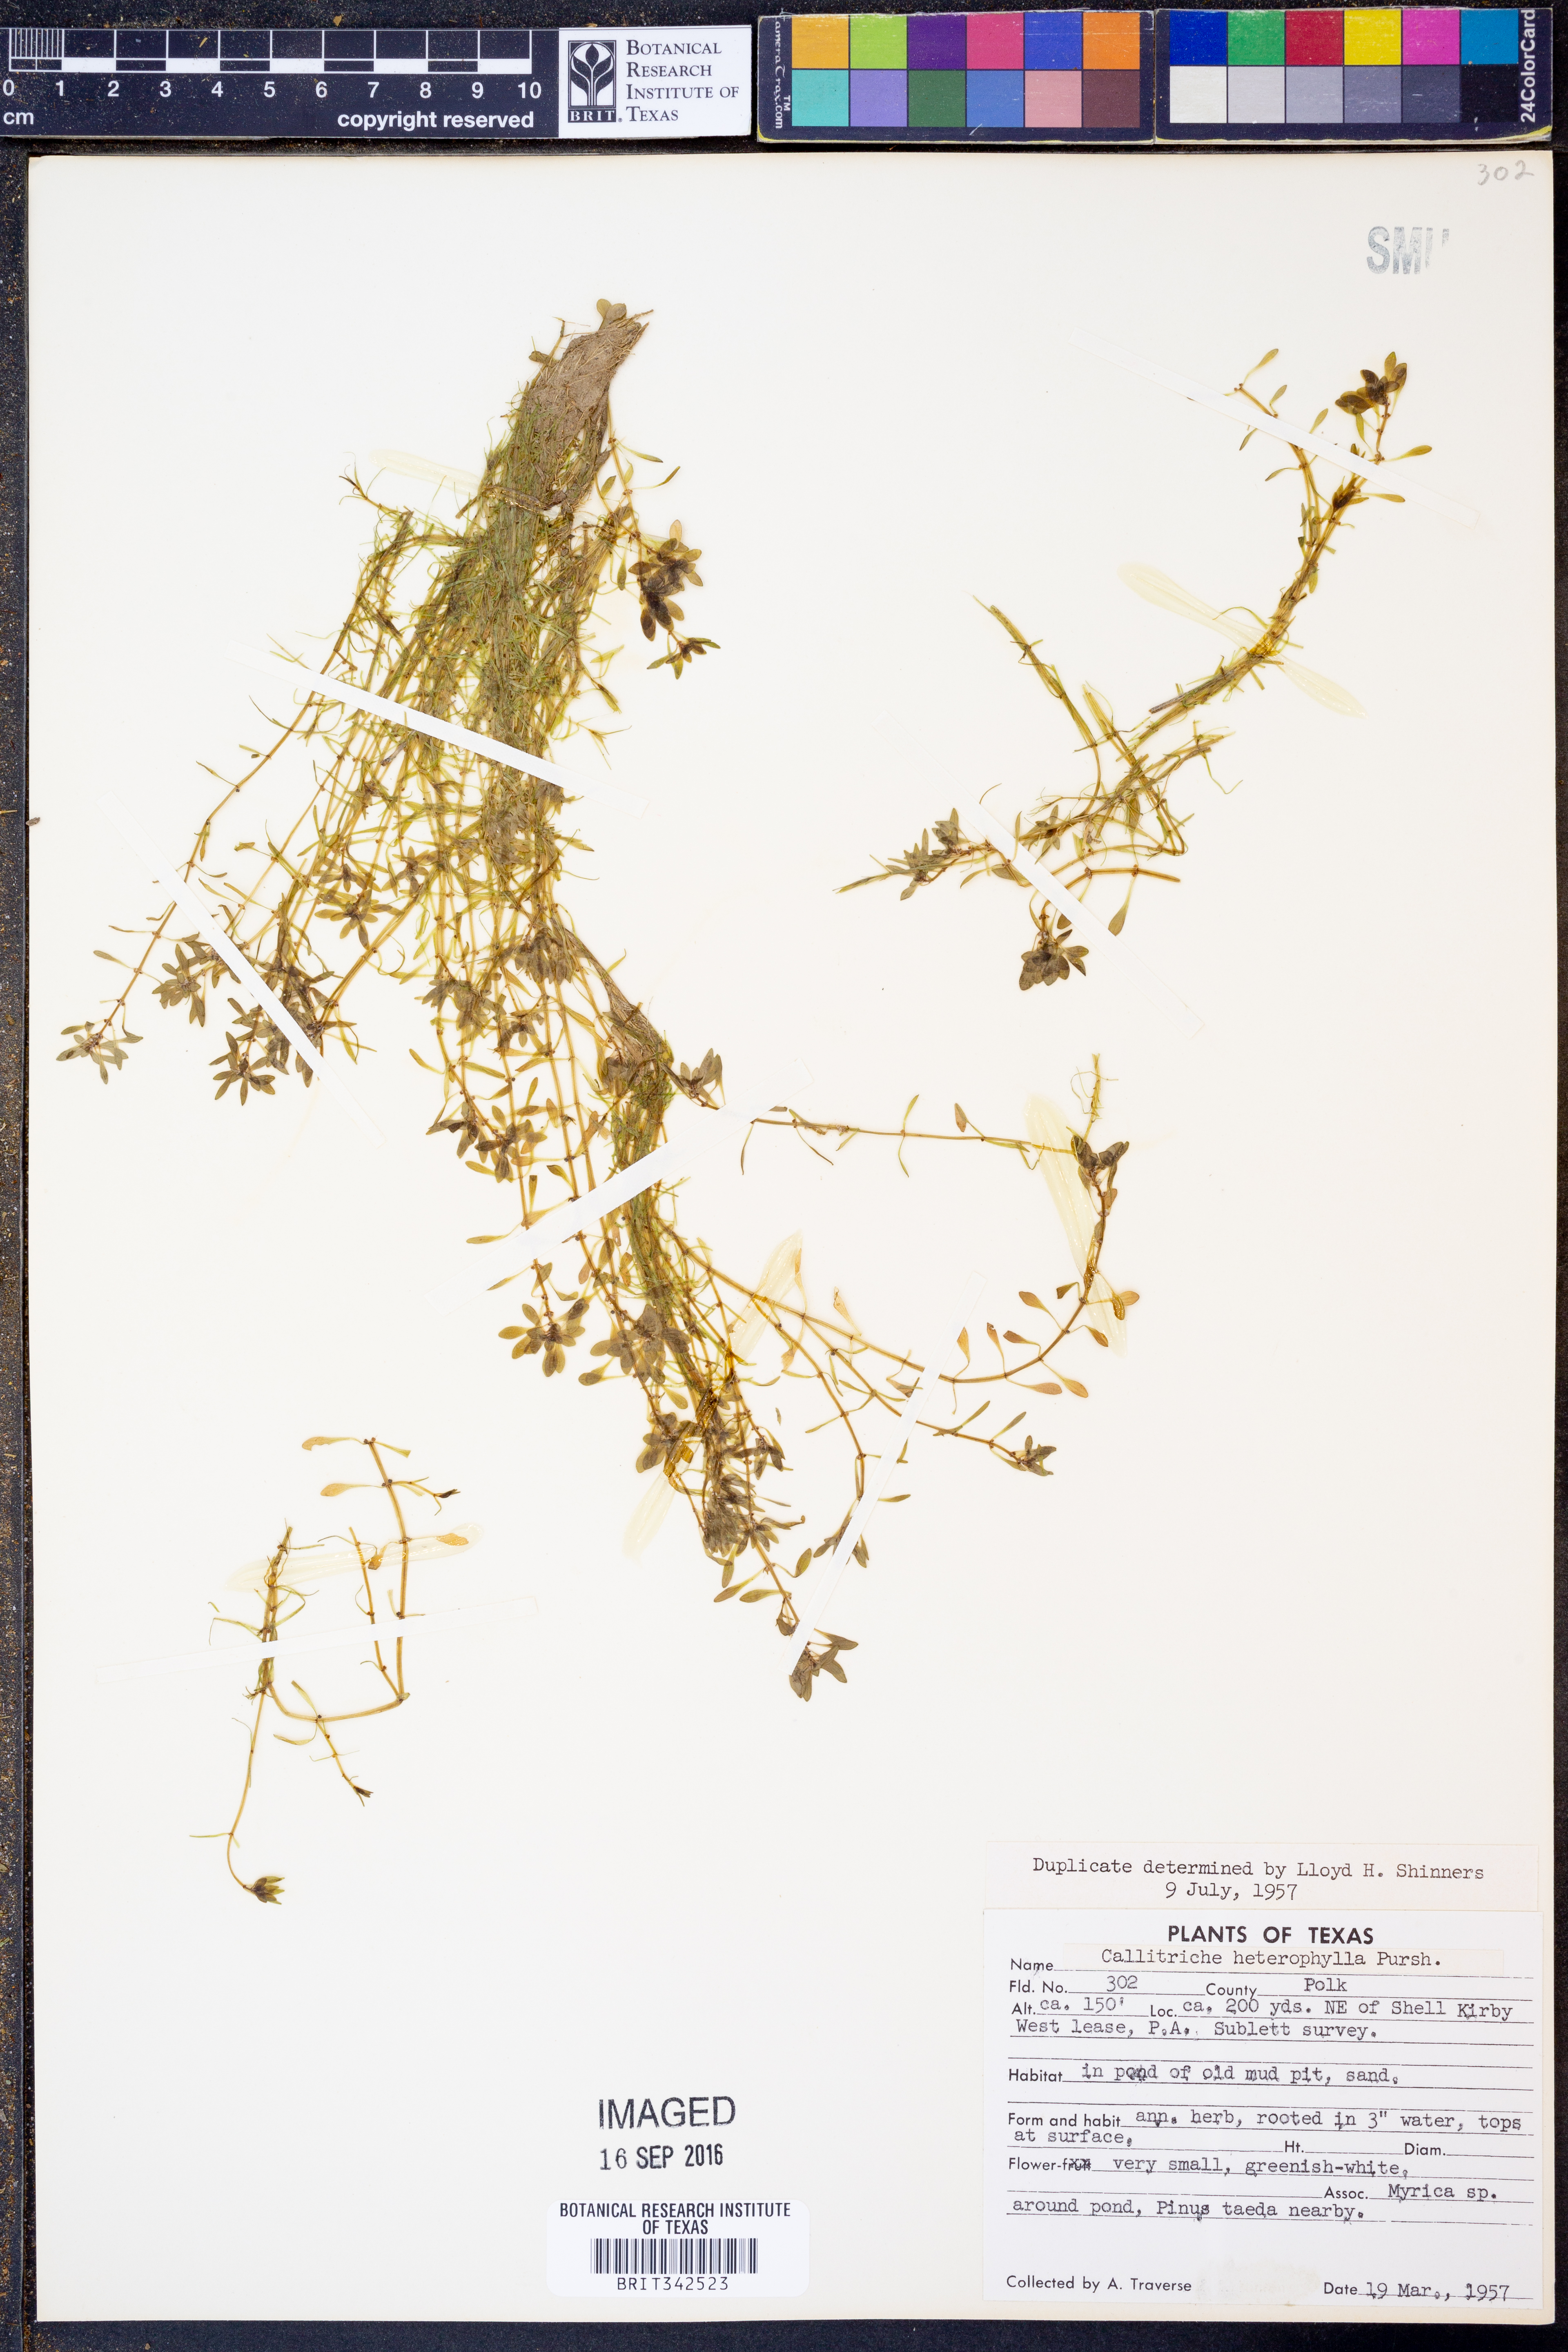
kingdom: Plantae
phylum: Tracheophyta
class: Magnoliopsida
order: Lamiales
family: Plantaginaceae
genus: Callitriche
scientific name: Callitriche heterophylla
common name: Two-headed water-starwort
